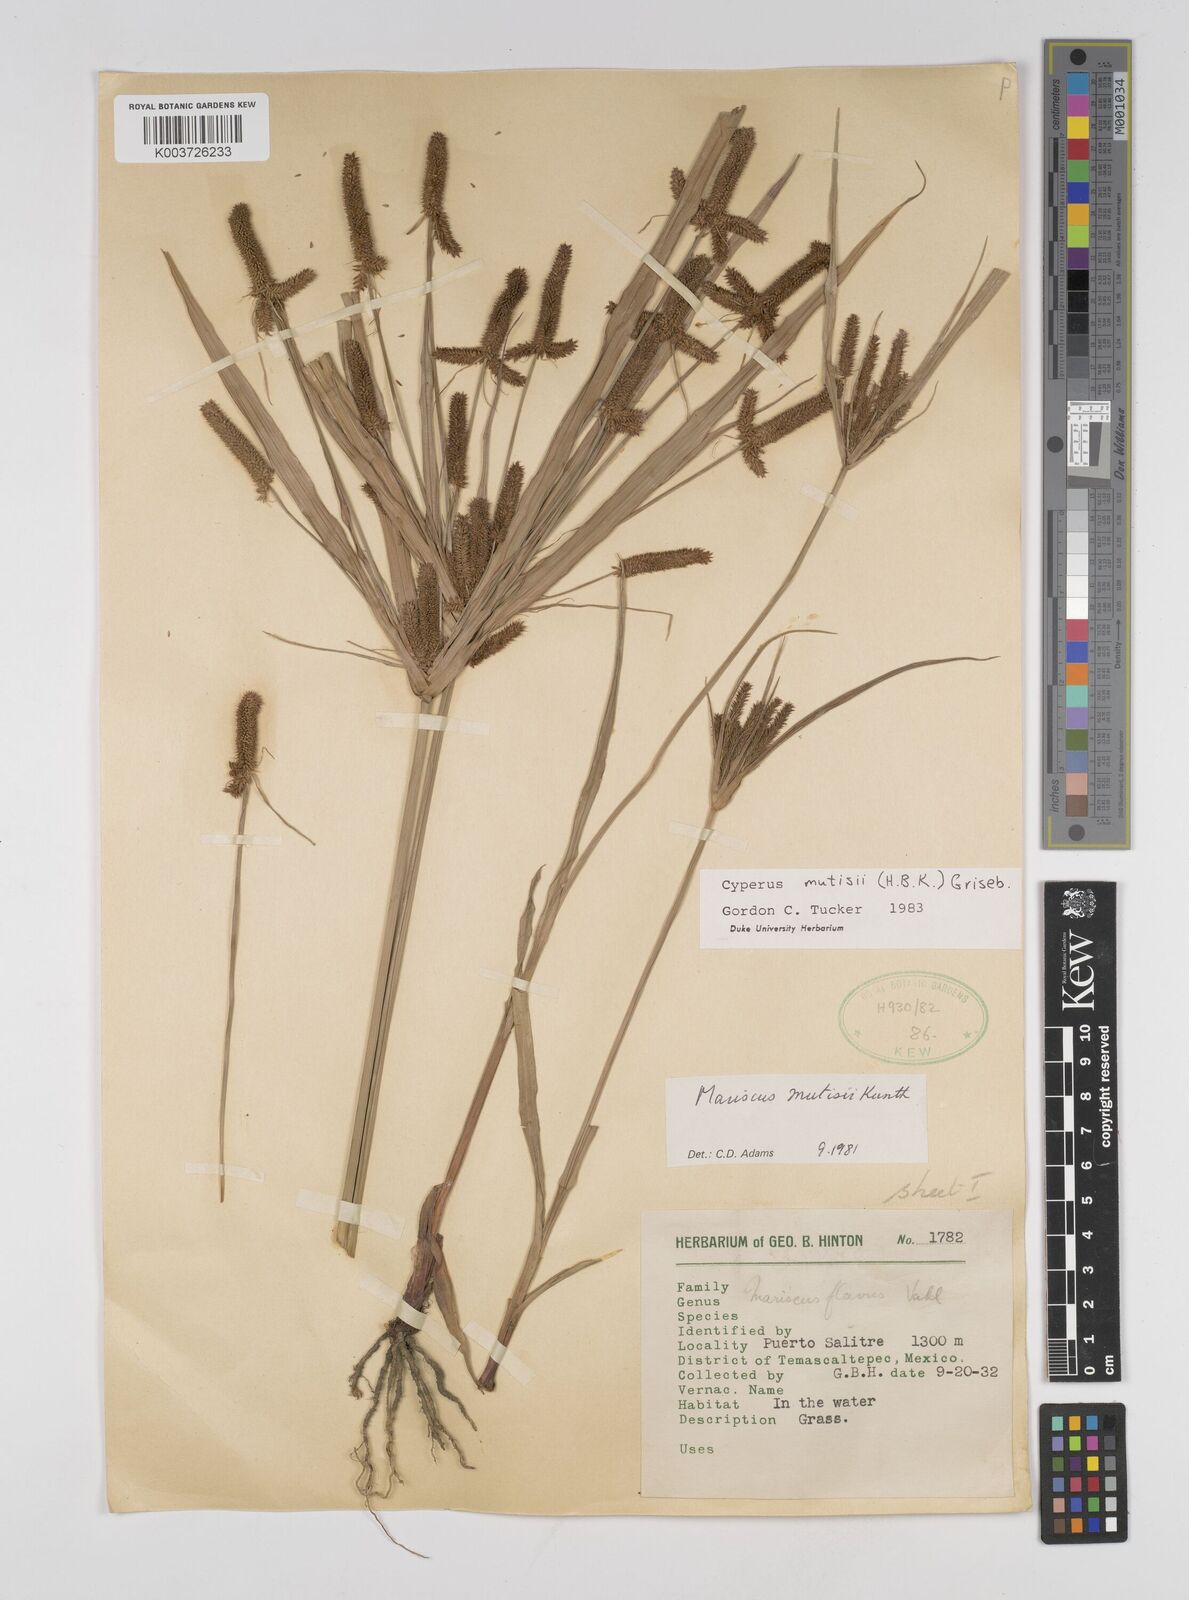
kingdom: Plantae
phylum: Tracheophyta
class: Liliopsida
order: Poales
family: Cyperaceae
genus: Cyperus
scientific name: Cyperus mutisii
